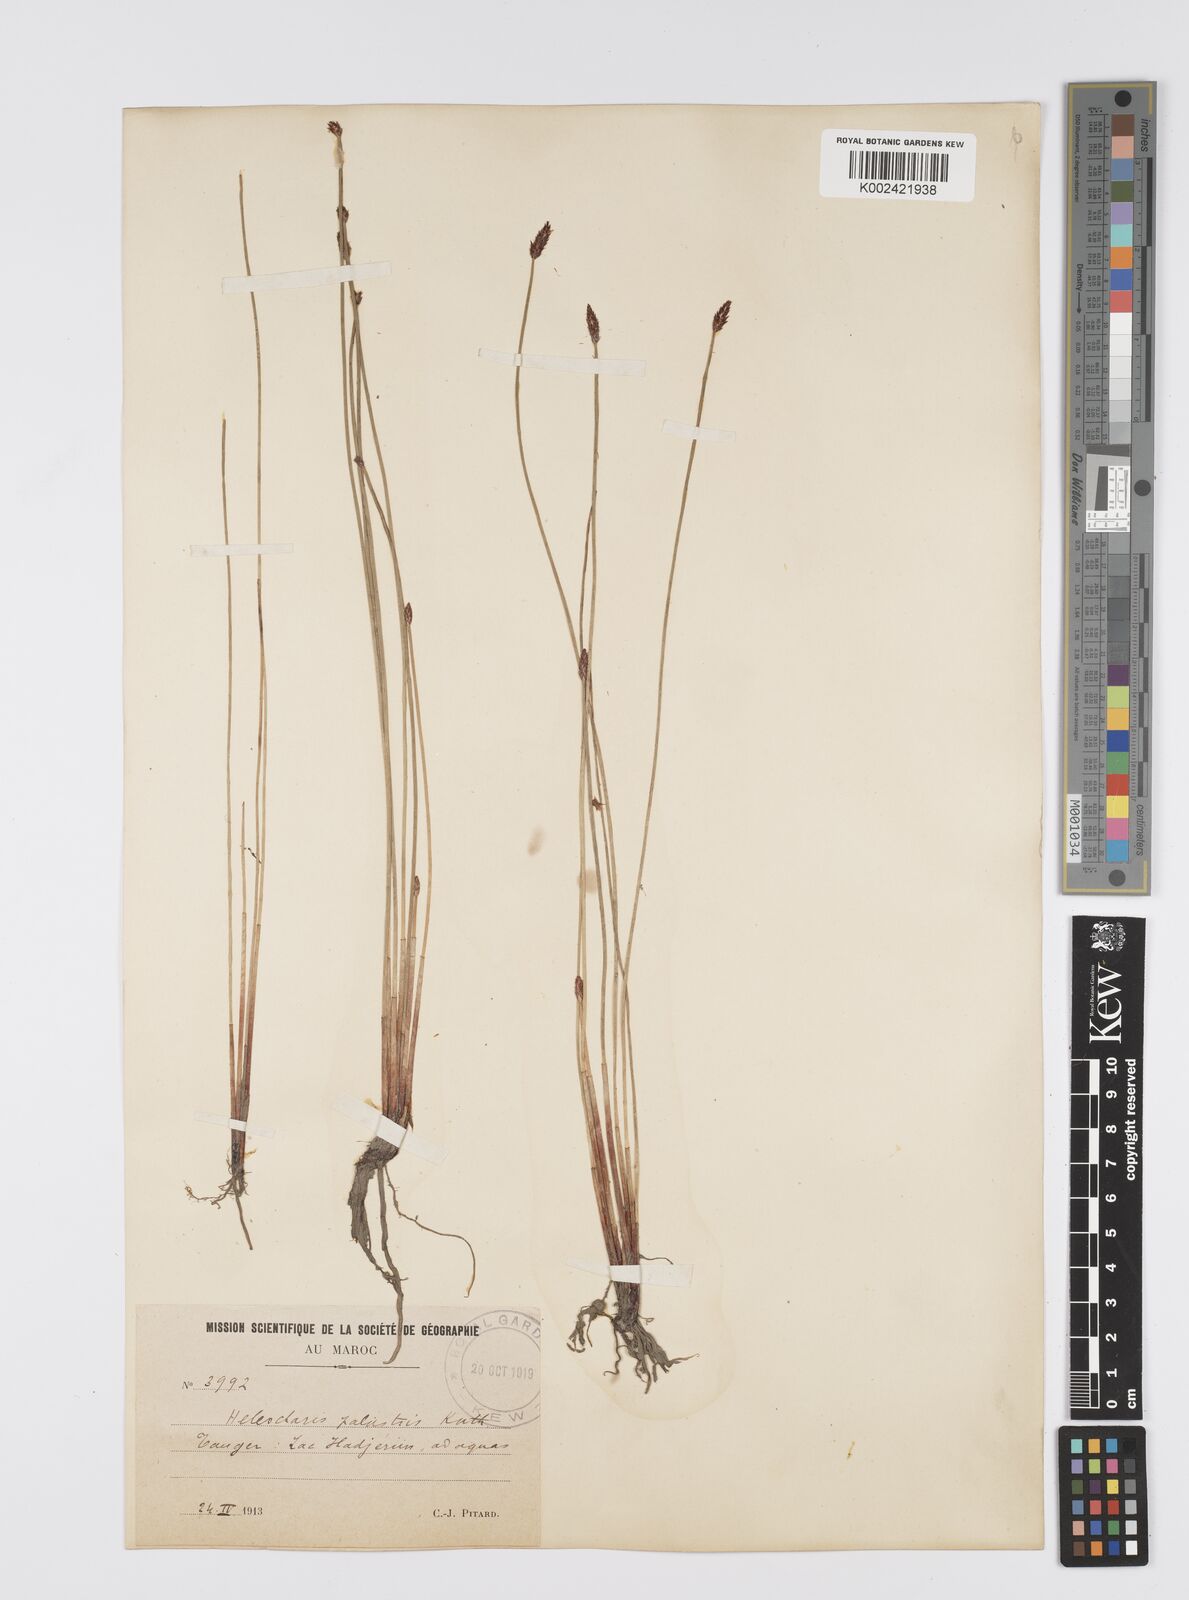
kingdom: Plantae
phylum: Tracheophyta
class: Liliopsida
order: Poales
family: Cyperaceae
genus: Eleocharis
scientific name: Eleocharis palustris
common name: Common spike-rush
